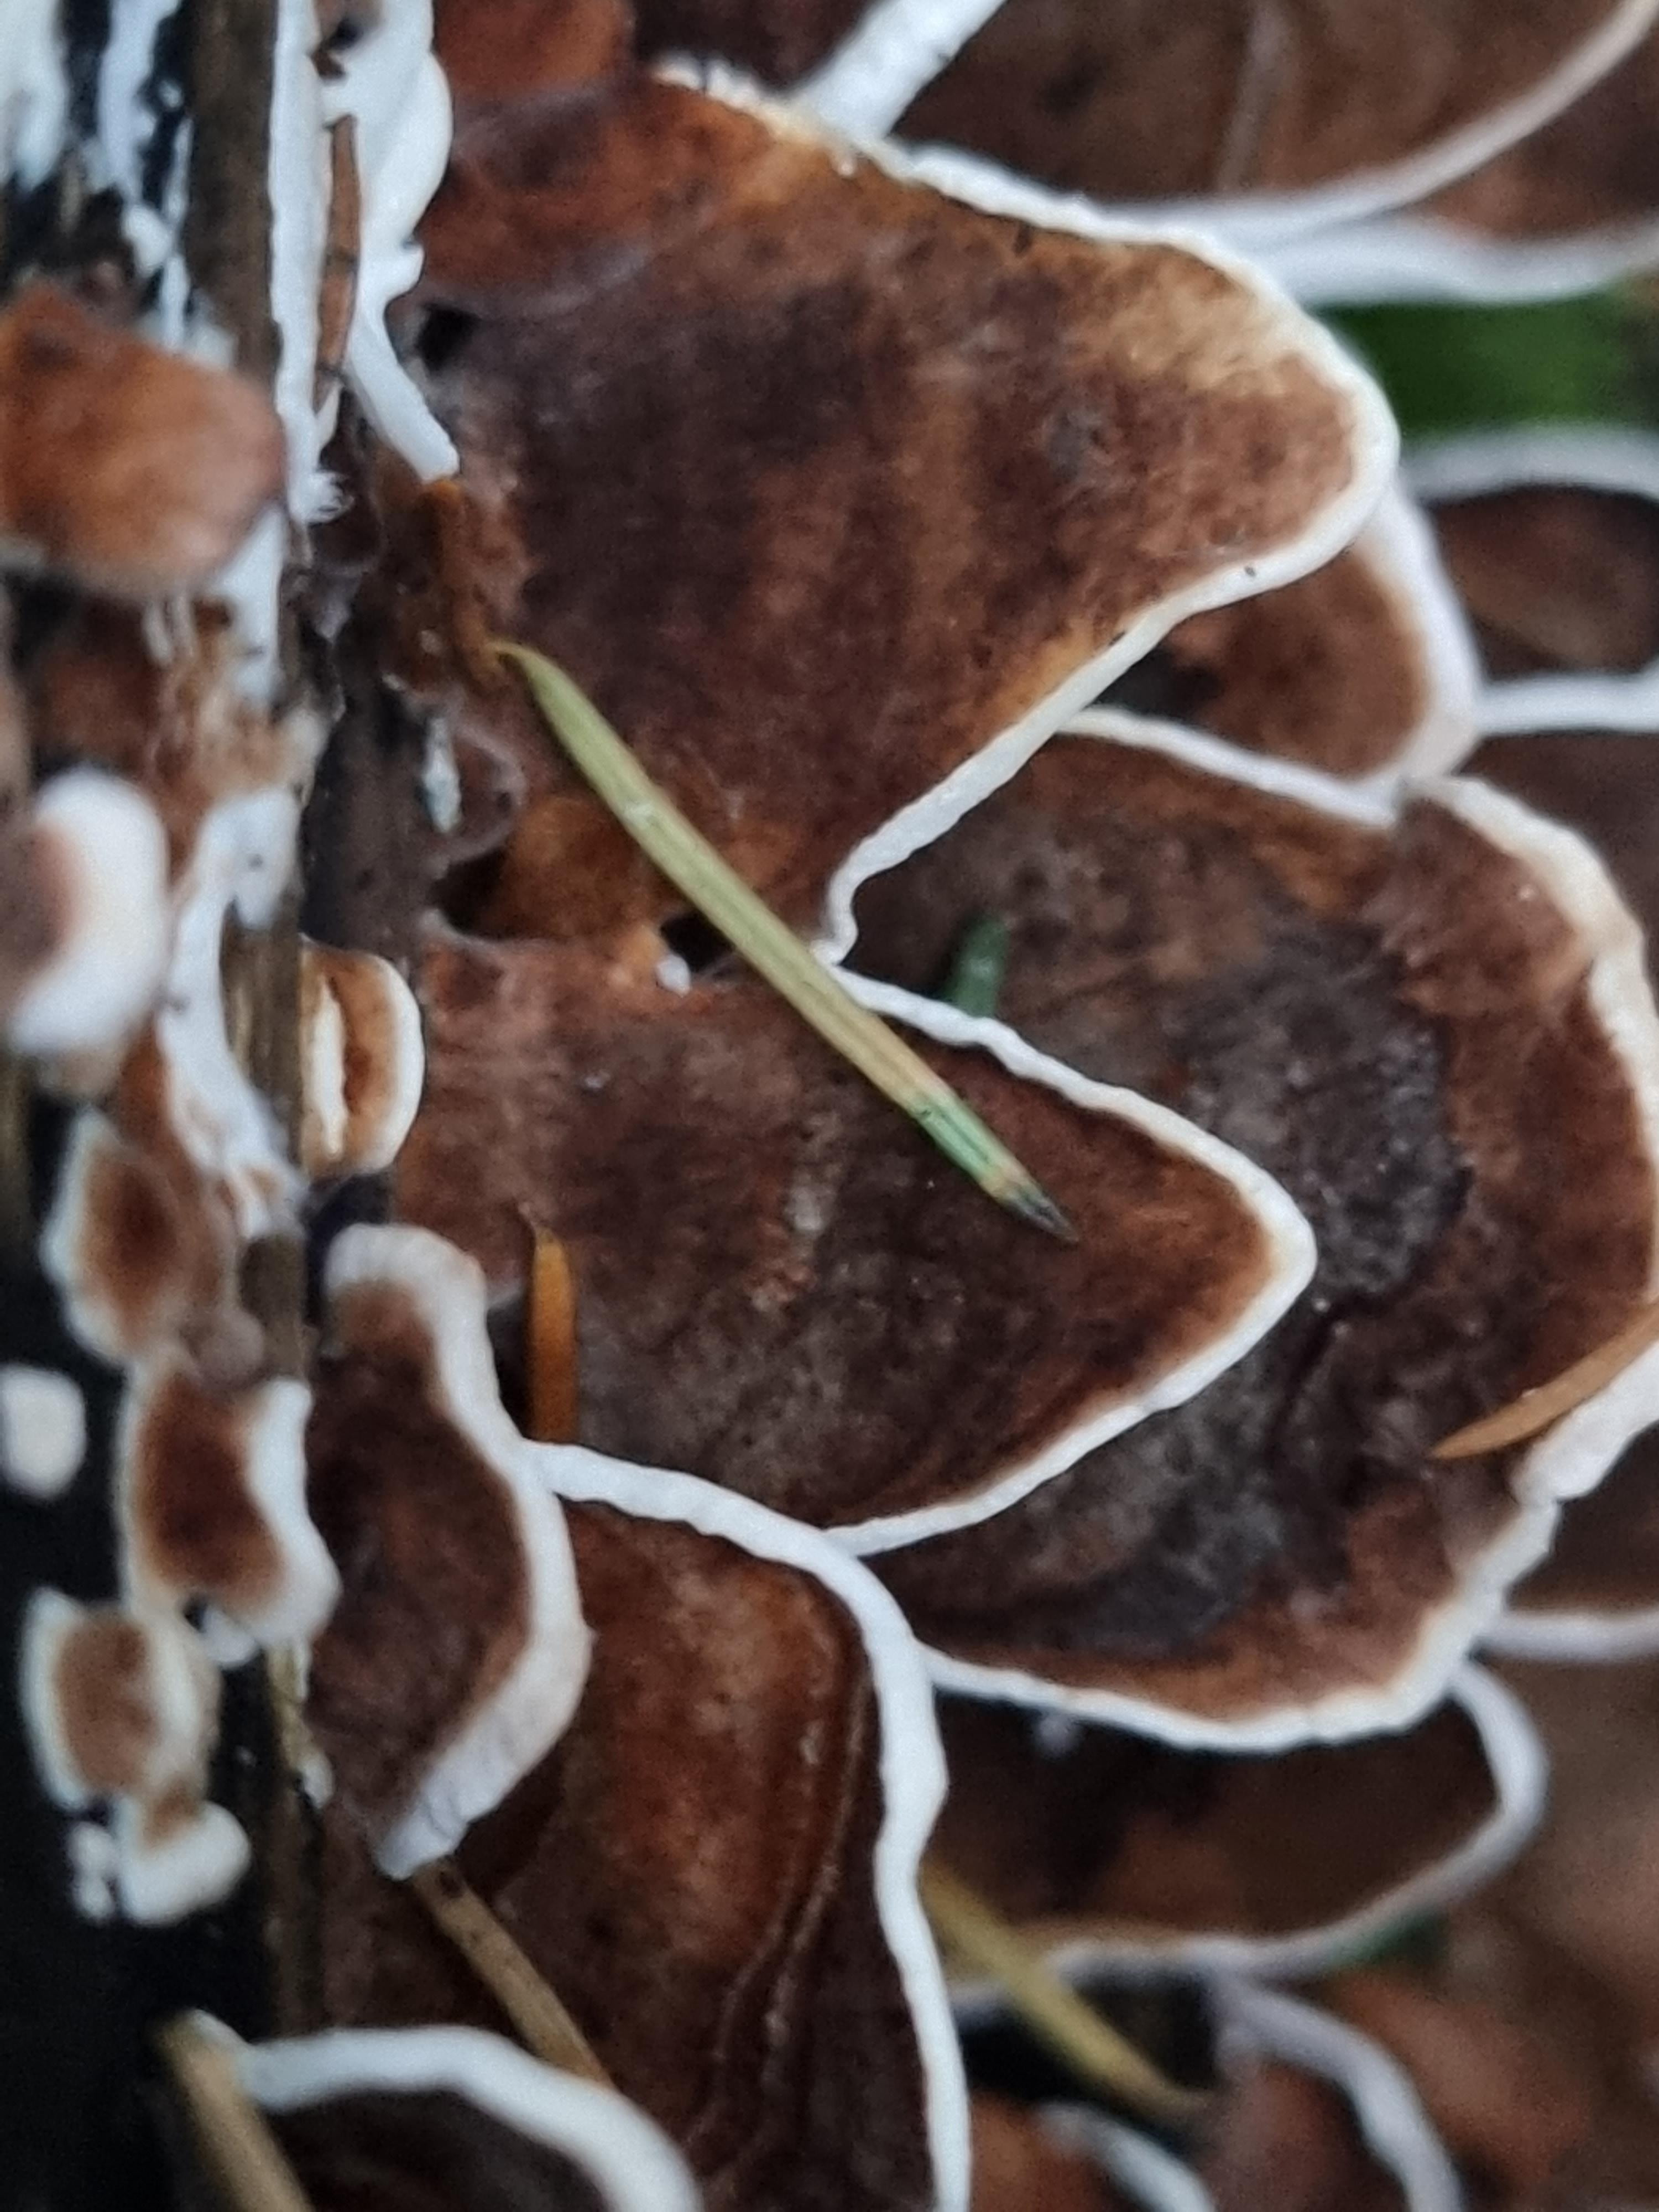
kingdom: Fungi
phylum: Basidiomycota
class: Agaricomycetes
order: Polyporales
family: Polyporaceae
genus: Trametes
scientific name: Trametes versicolor
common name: broget læderporesvamp
